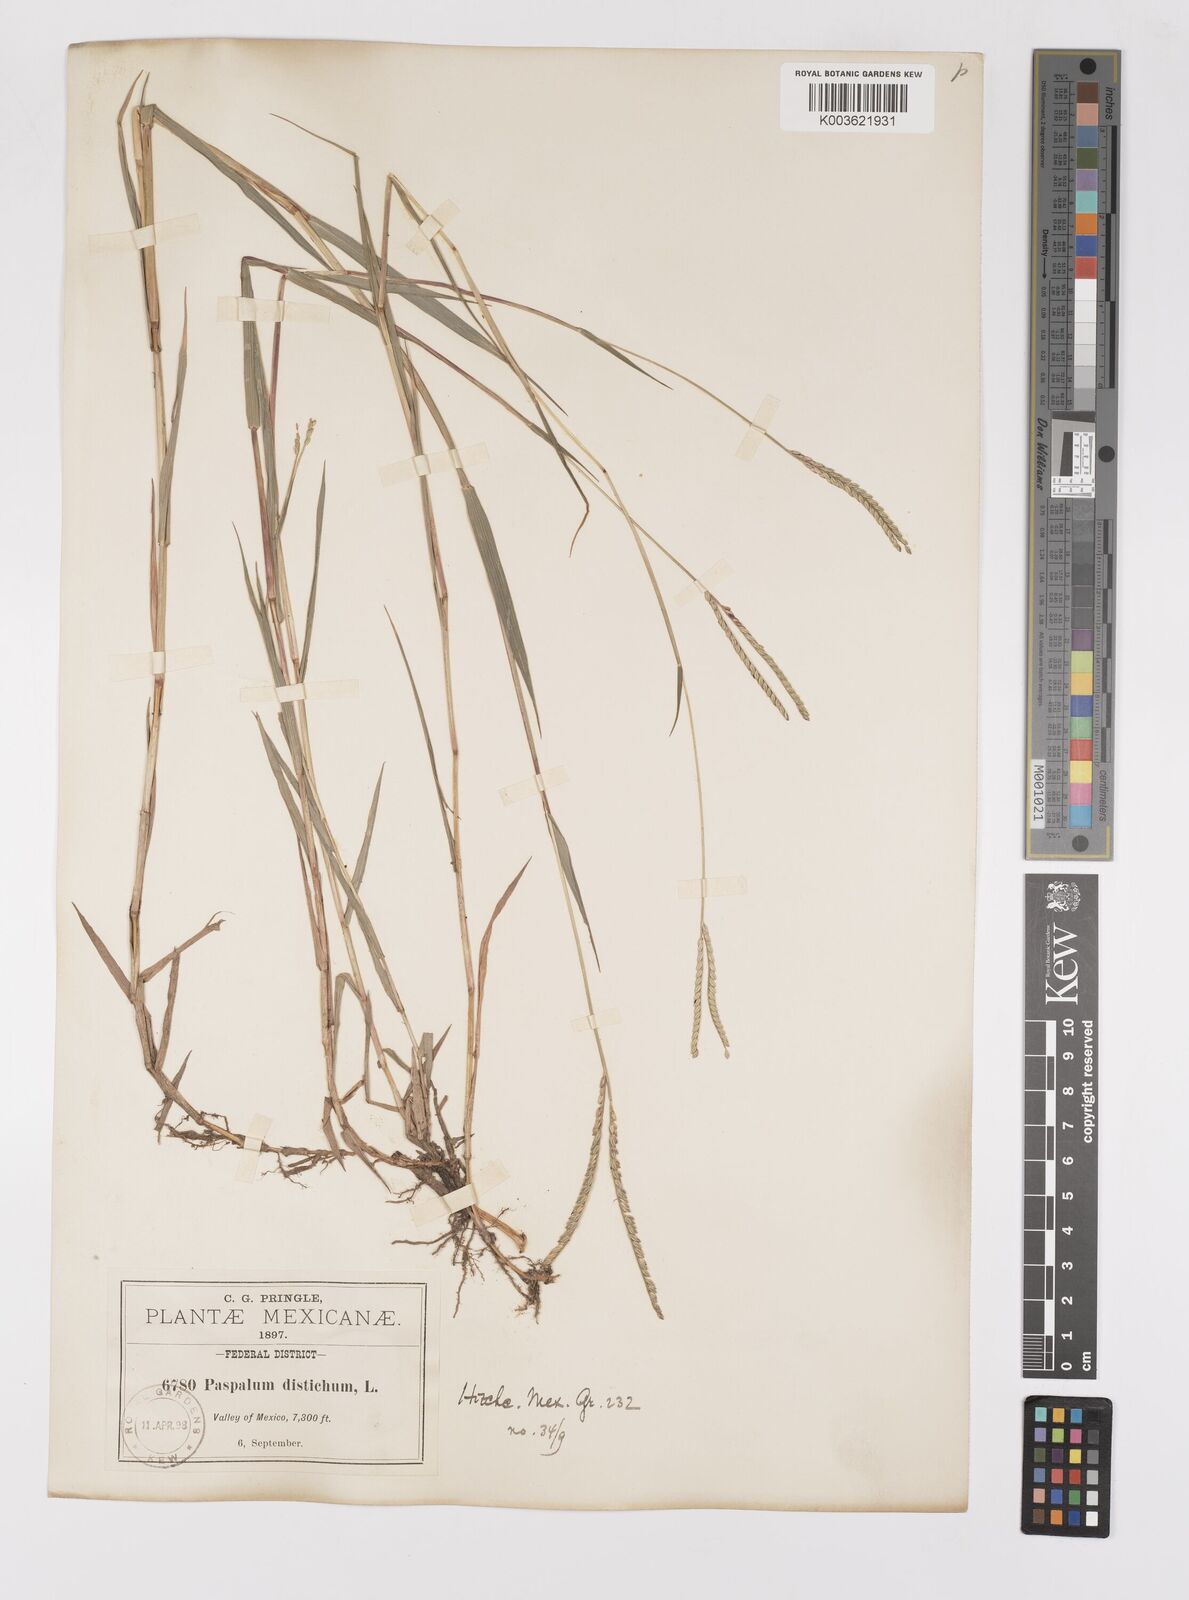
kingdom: Plantae
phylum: Tracheophyta
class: Liliopsida
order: Poales
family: Poaceae
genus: Paspalum
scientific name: Paspalum distichum
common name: Knotgrass
